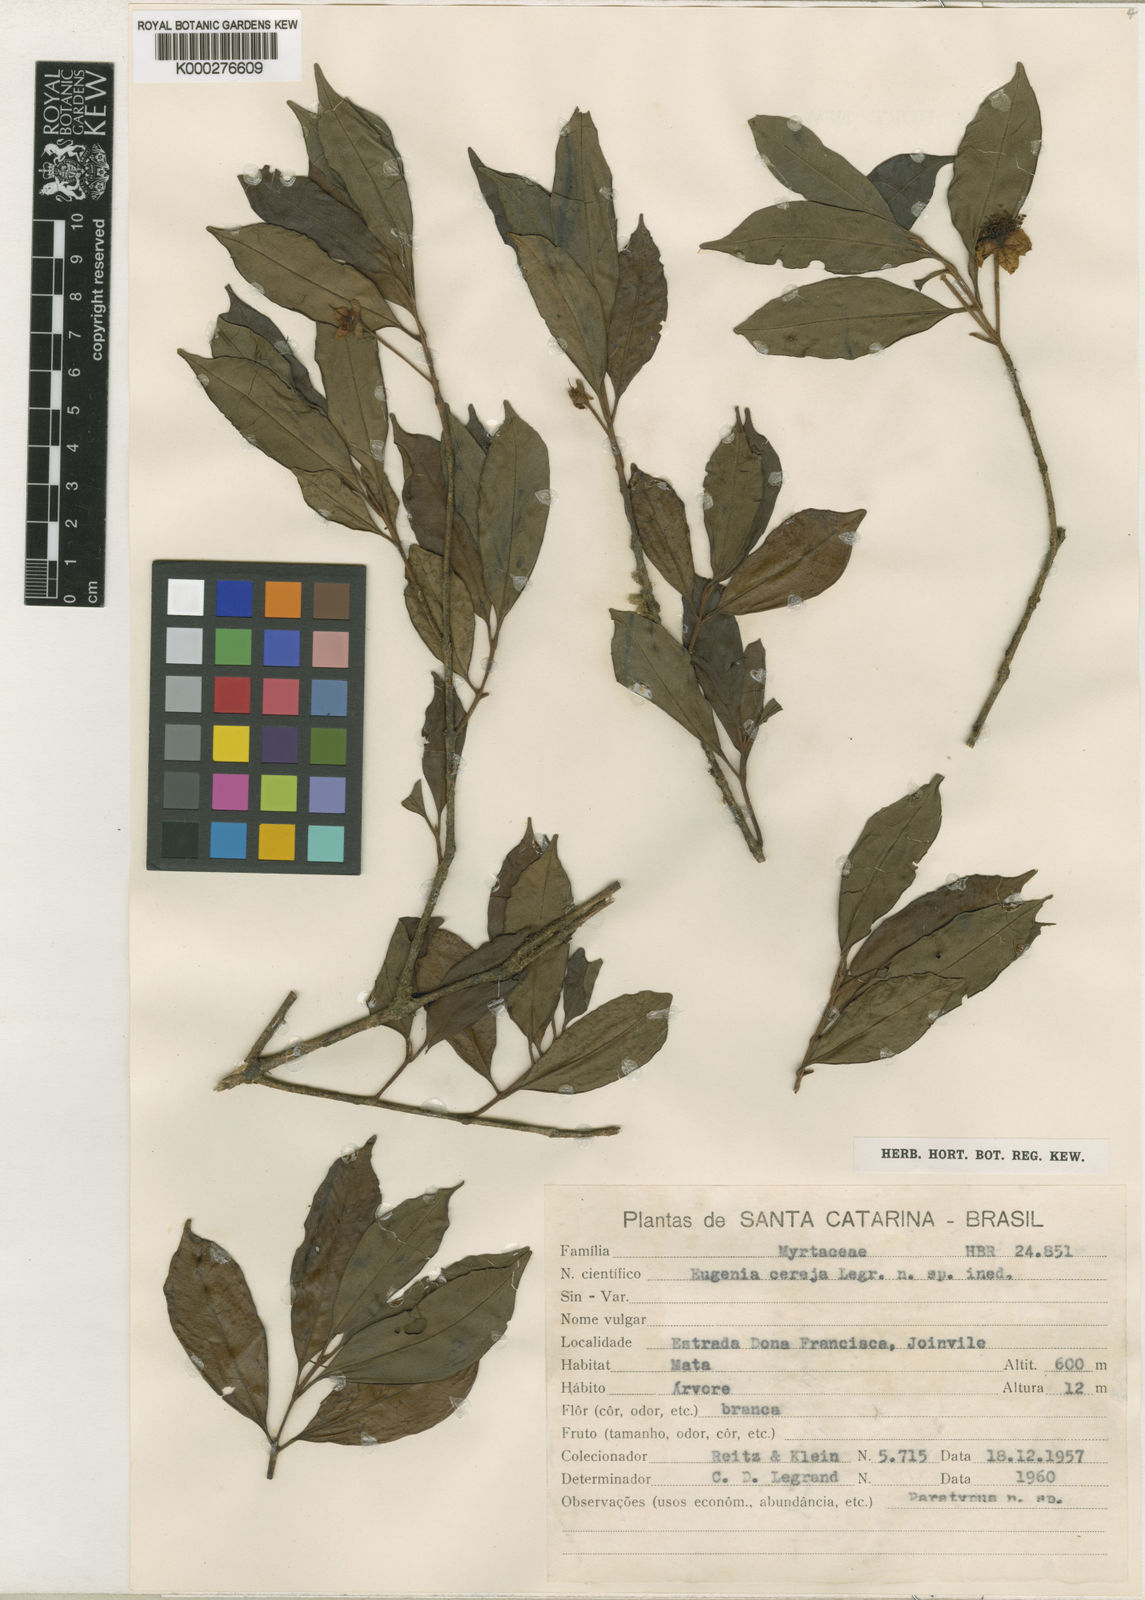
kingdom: Plantae
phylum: Tracheophyta
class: Magnoliopsida
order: Myrtales
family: Myrtaceae
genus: Eugenia
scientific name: Eugenia cereja
